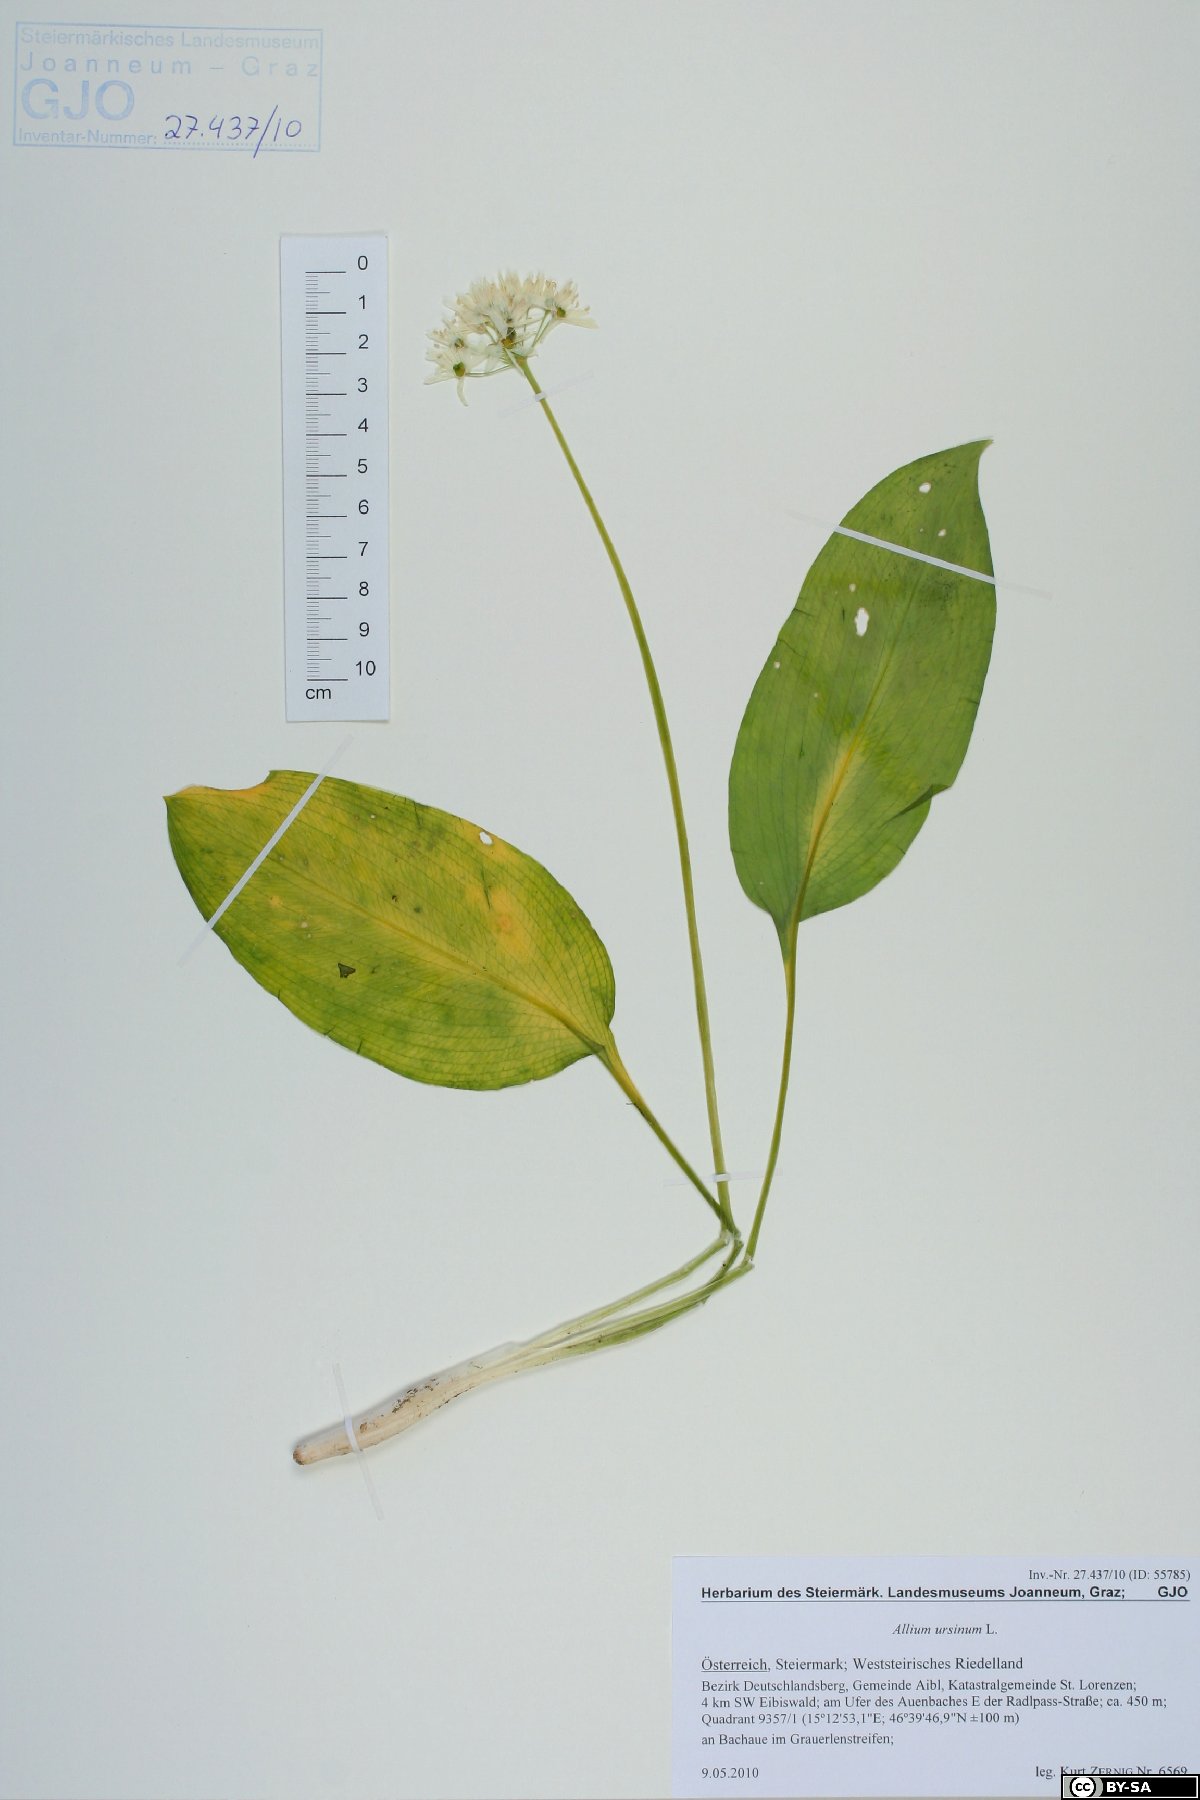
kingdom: Plantae
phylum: Tracheophyta
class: Liliopsida
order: Asparagales
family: Amaryllidaceae
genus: Allium
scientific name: Allium ursinum
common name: Ramsons
